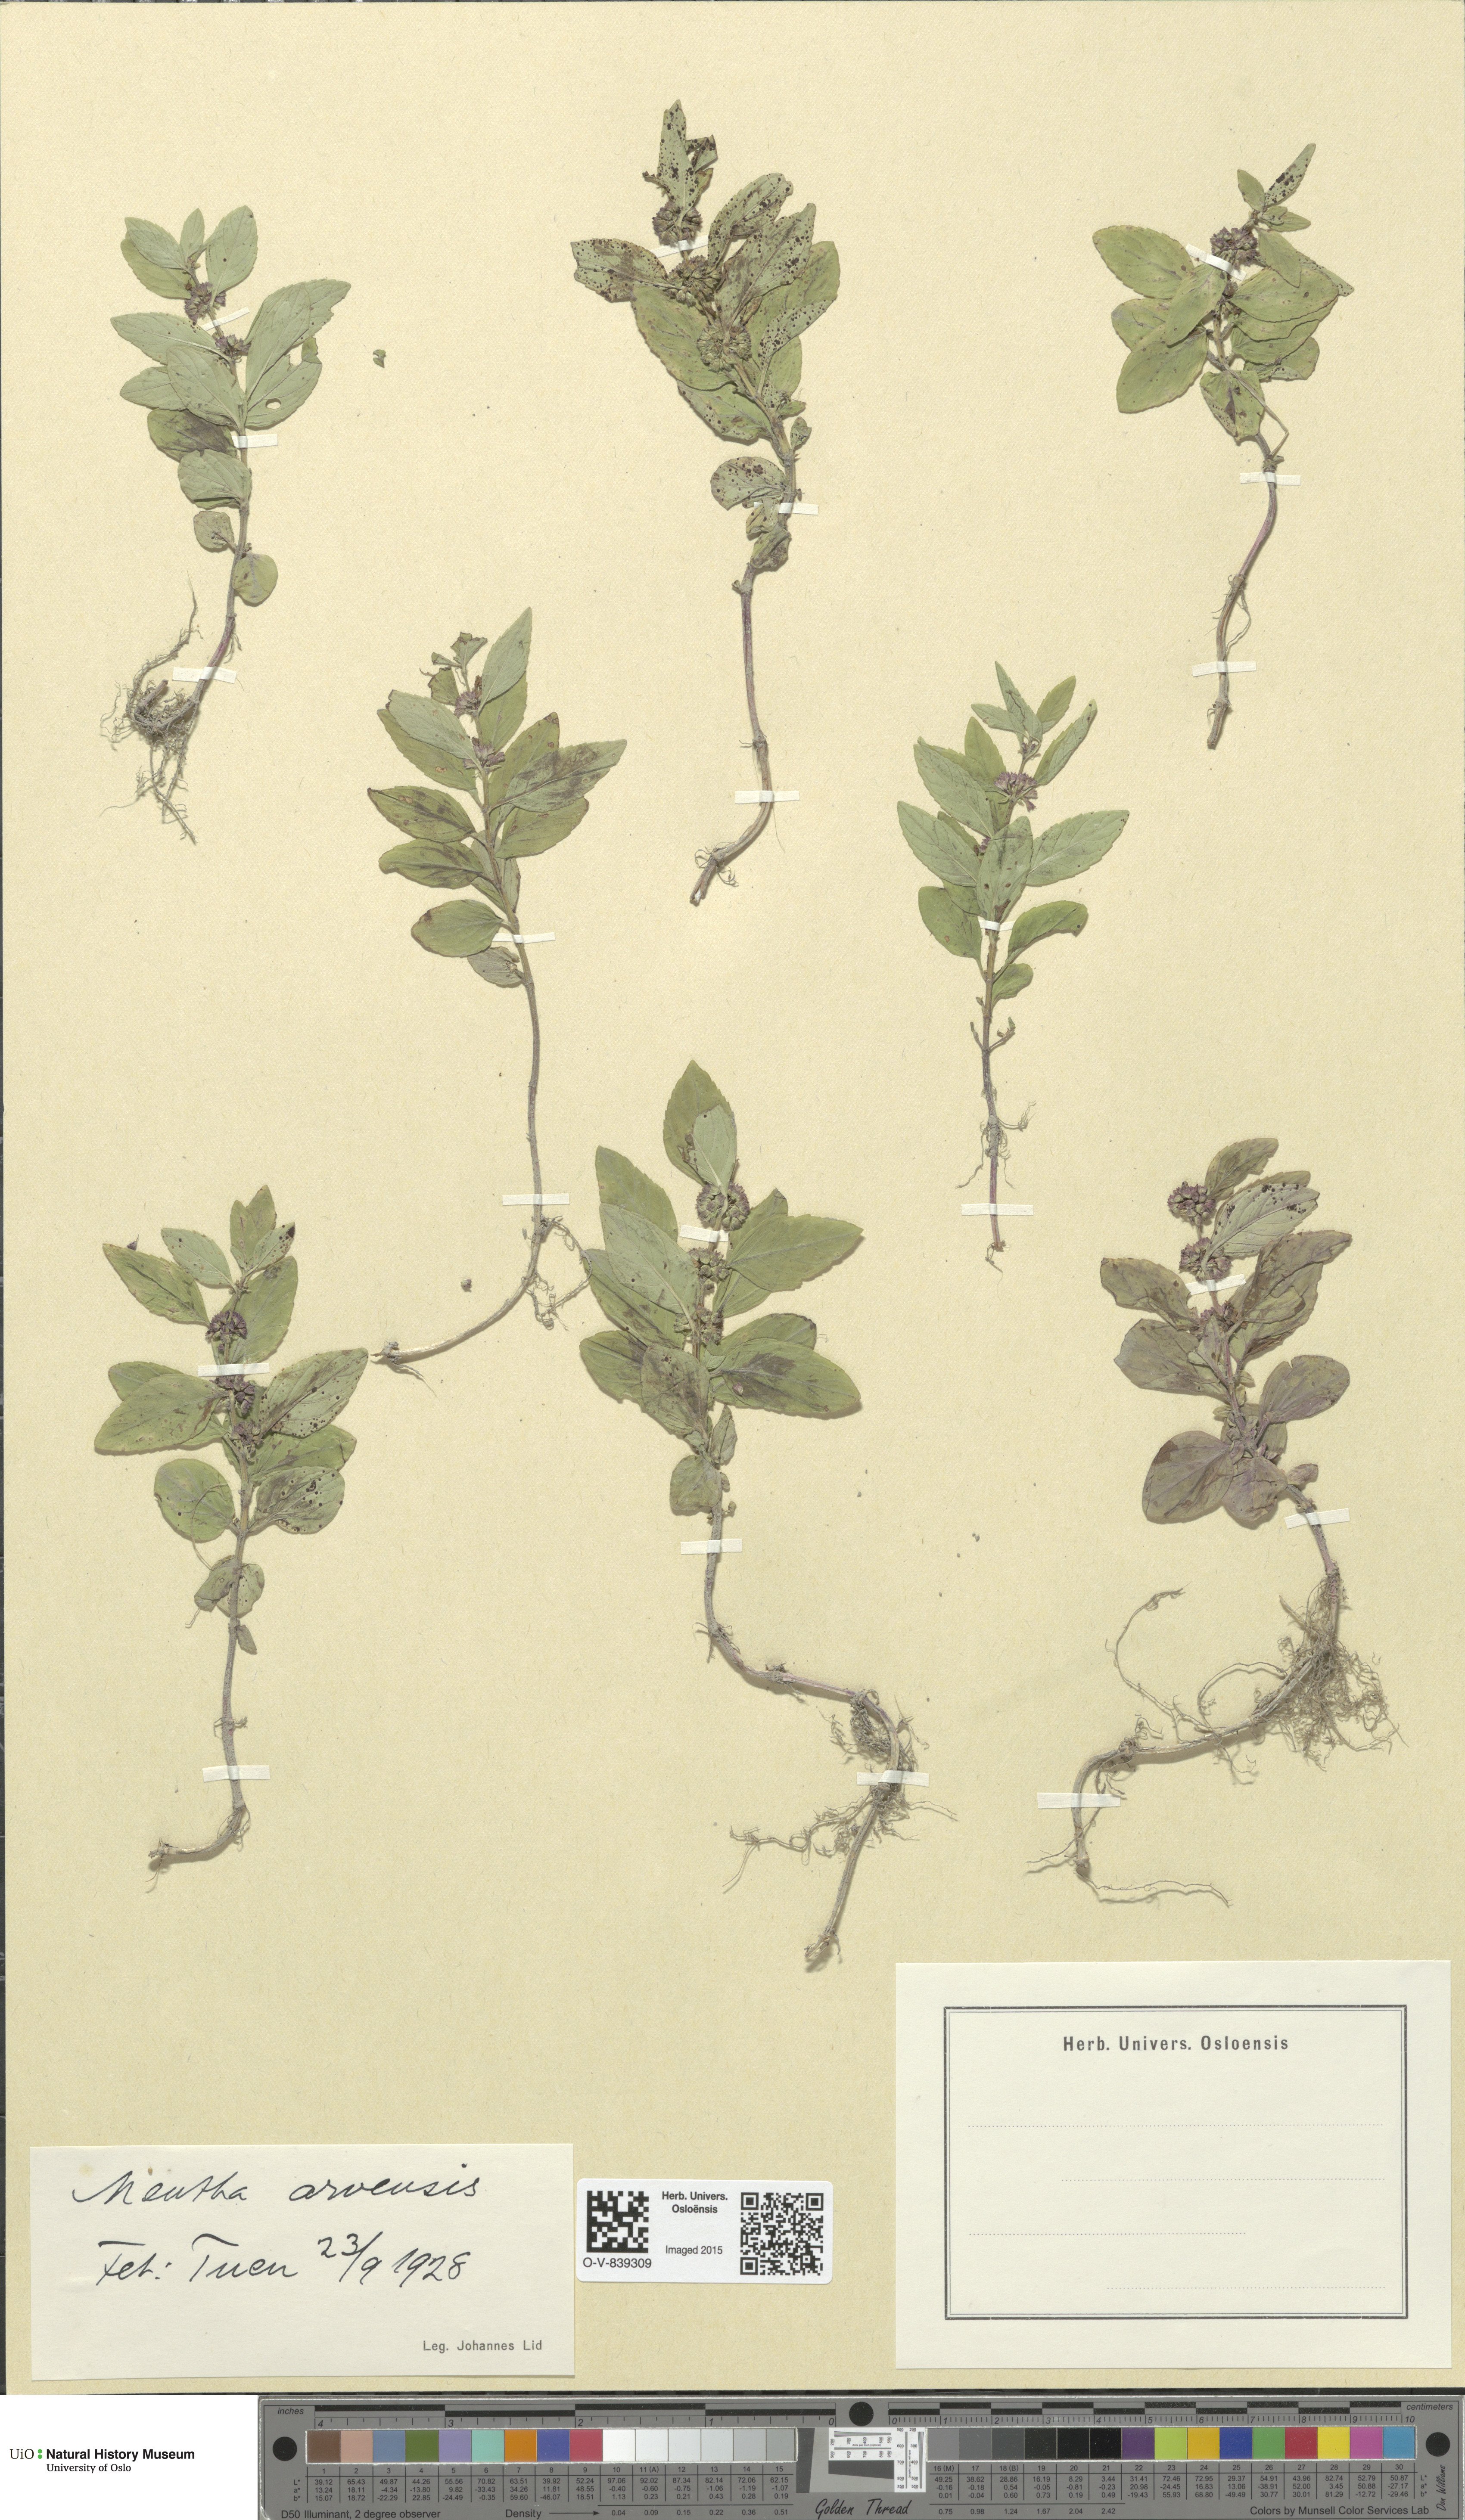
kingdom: Plantae
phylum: Tracheophyta
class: Magnoliopsida
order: Lamiales
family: Lamiaceae
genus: Mentha
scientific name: Mentha arvensis
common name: Corn mint
